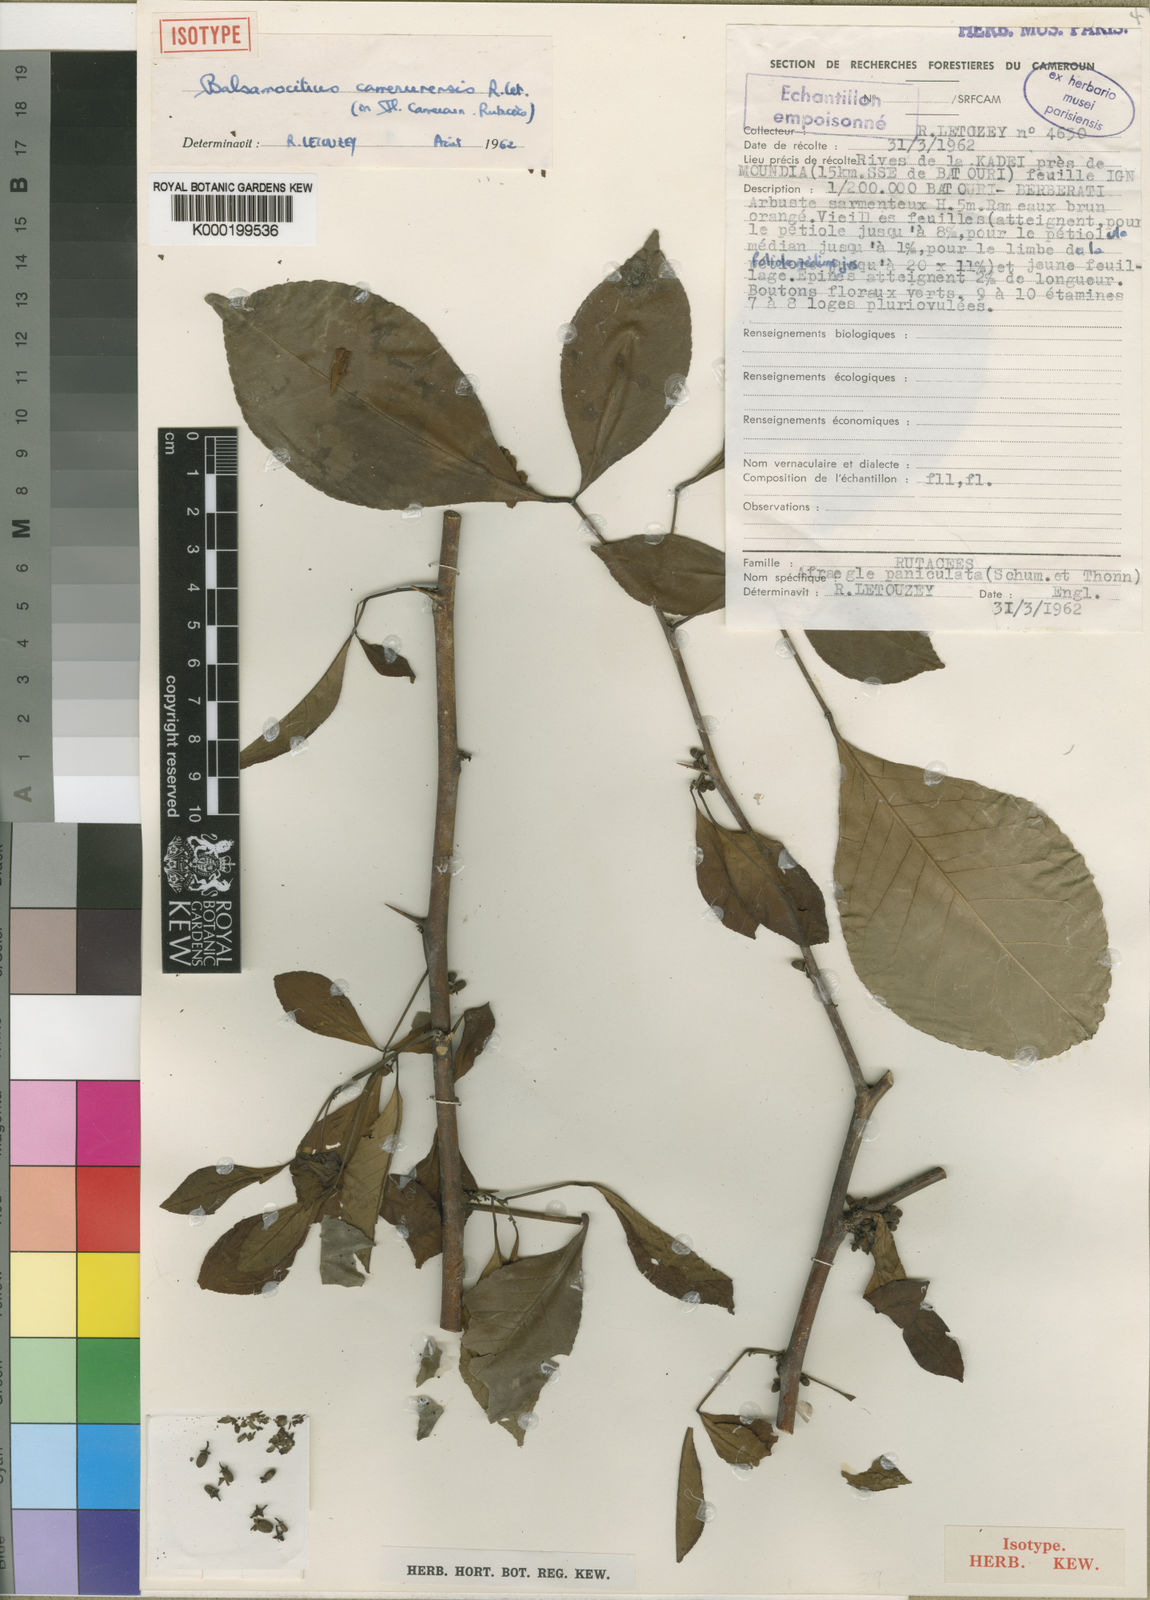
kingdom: Plantae
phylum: Tracheophyta
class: Magnoliopsida
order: Sapindales
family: Rutaceae
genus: Balsamocitrus
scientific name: Balsamocitrus camerunensis
